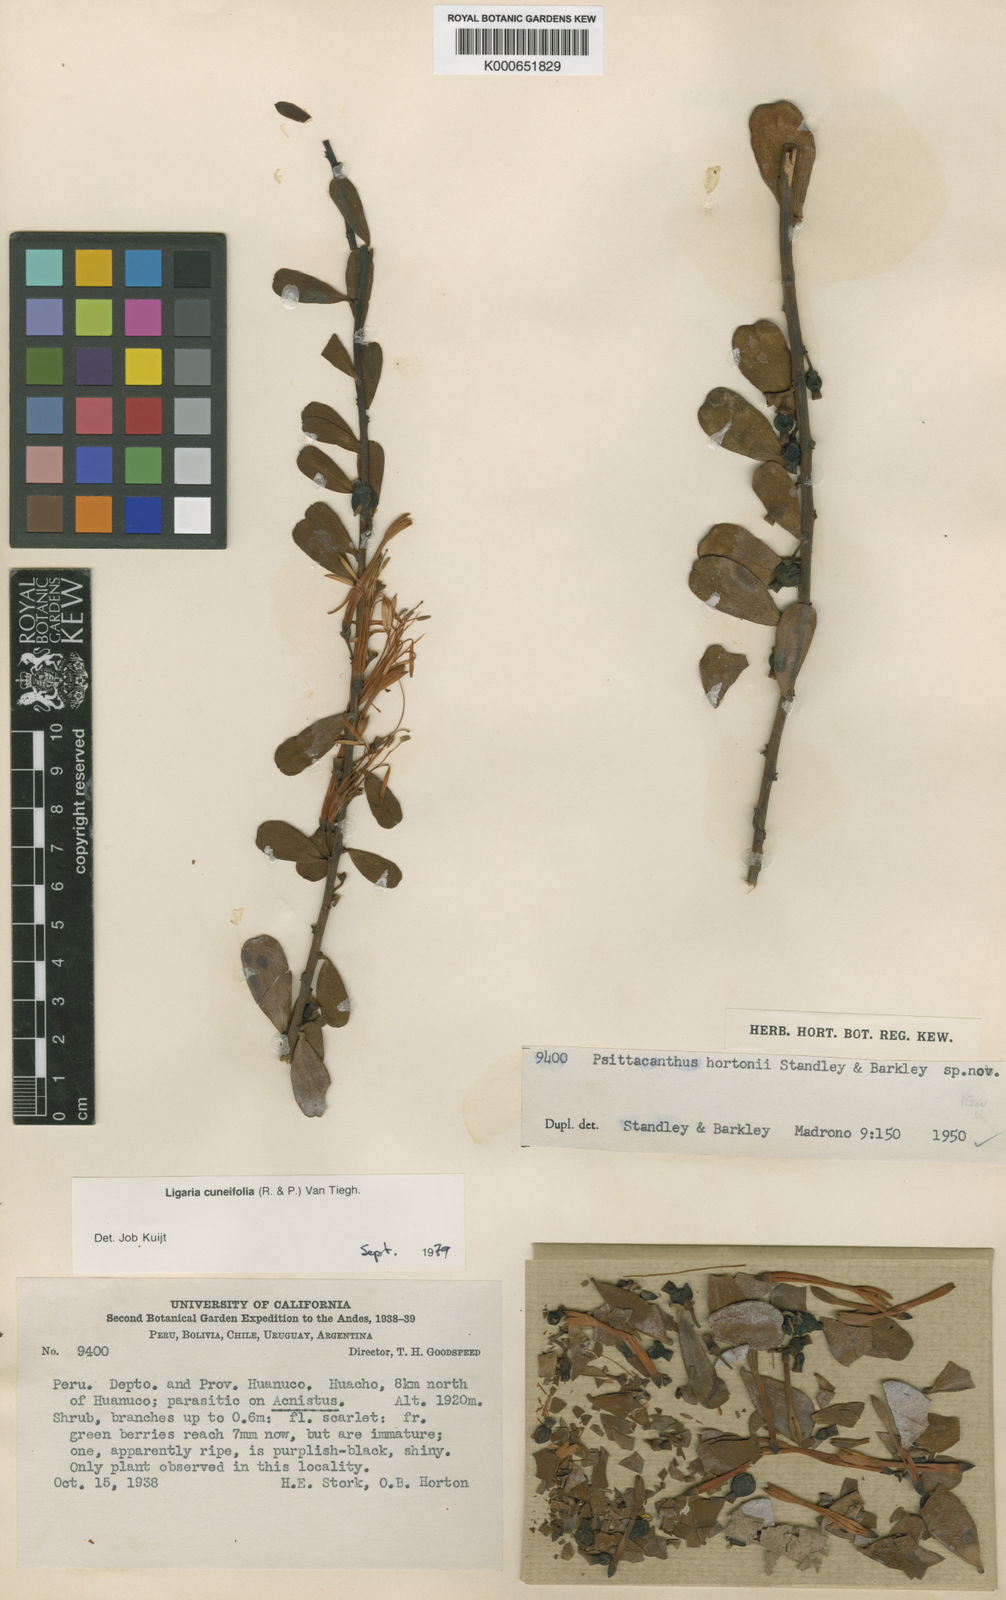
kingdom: Plantae
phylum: Tracheophyta
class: Magnoliopsida
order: Santalales
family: Loranthaceae
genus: Ligaria
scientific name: Ligaria cuneifolia
